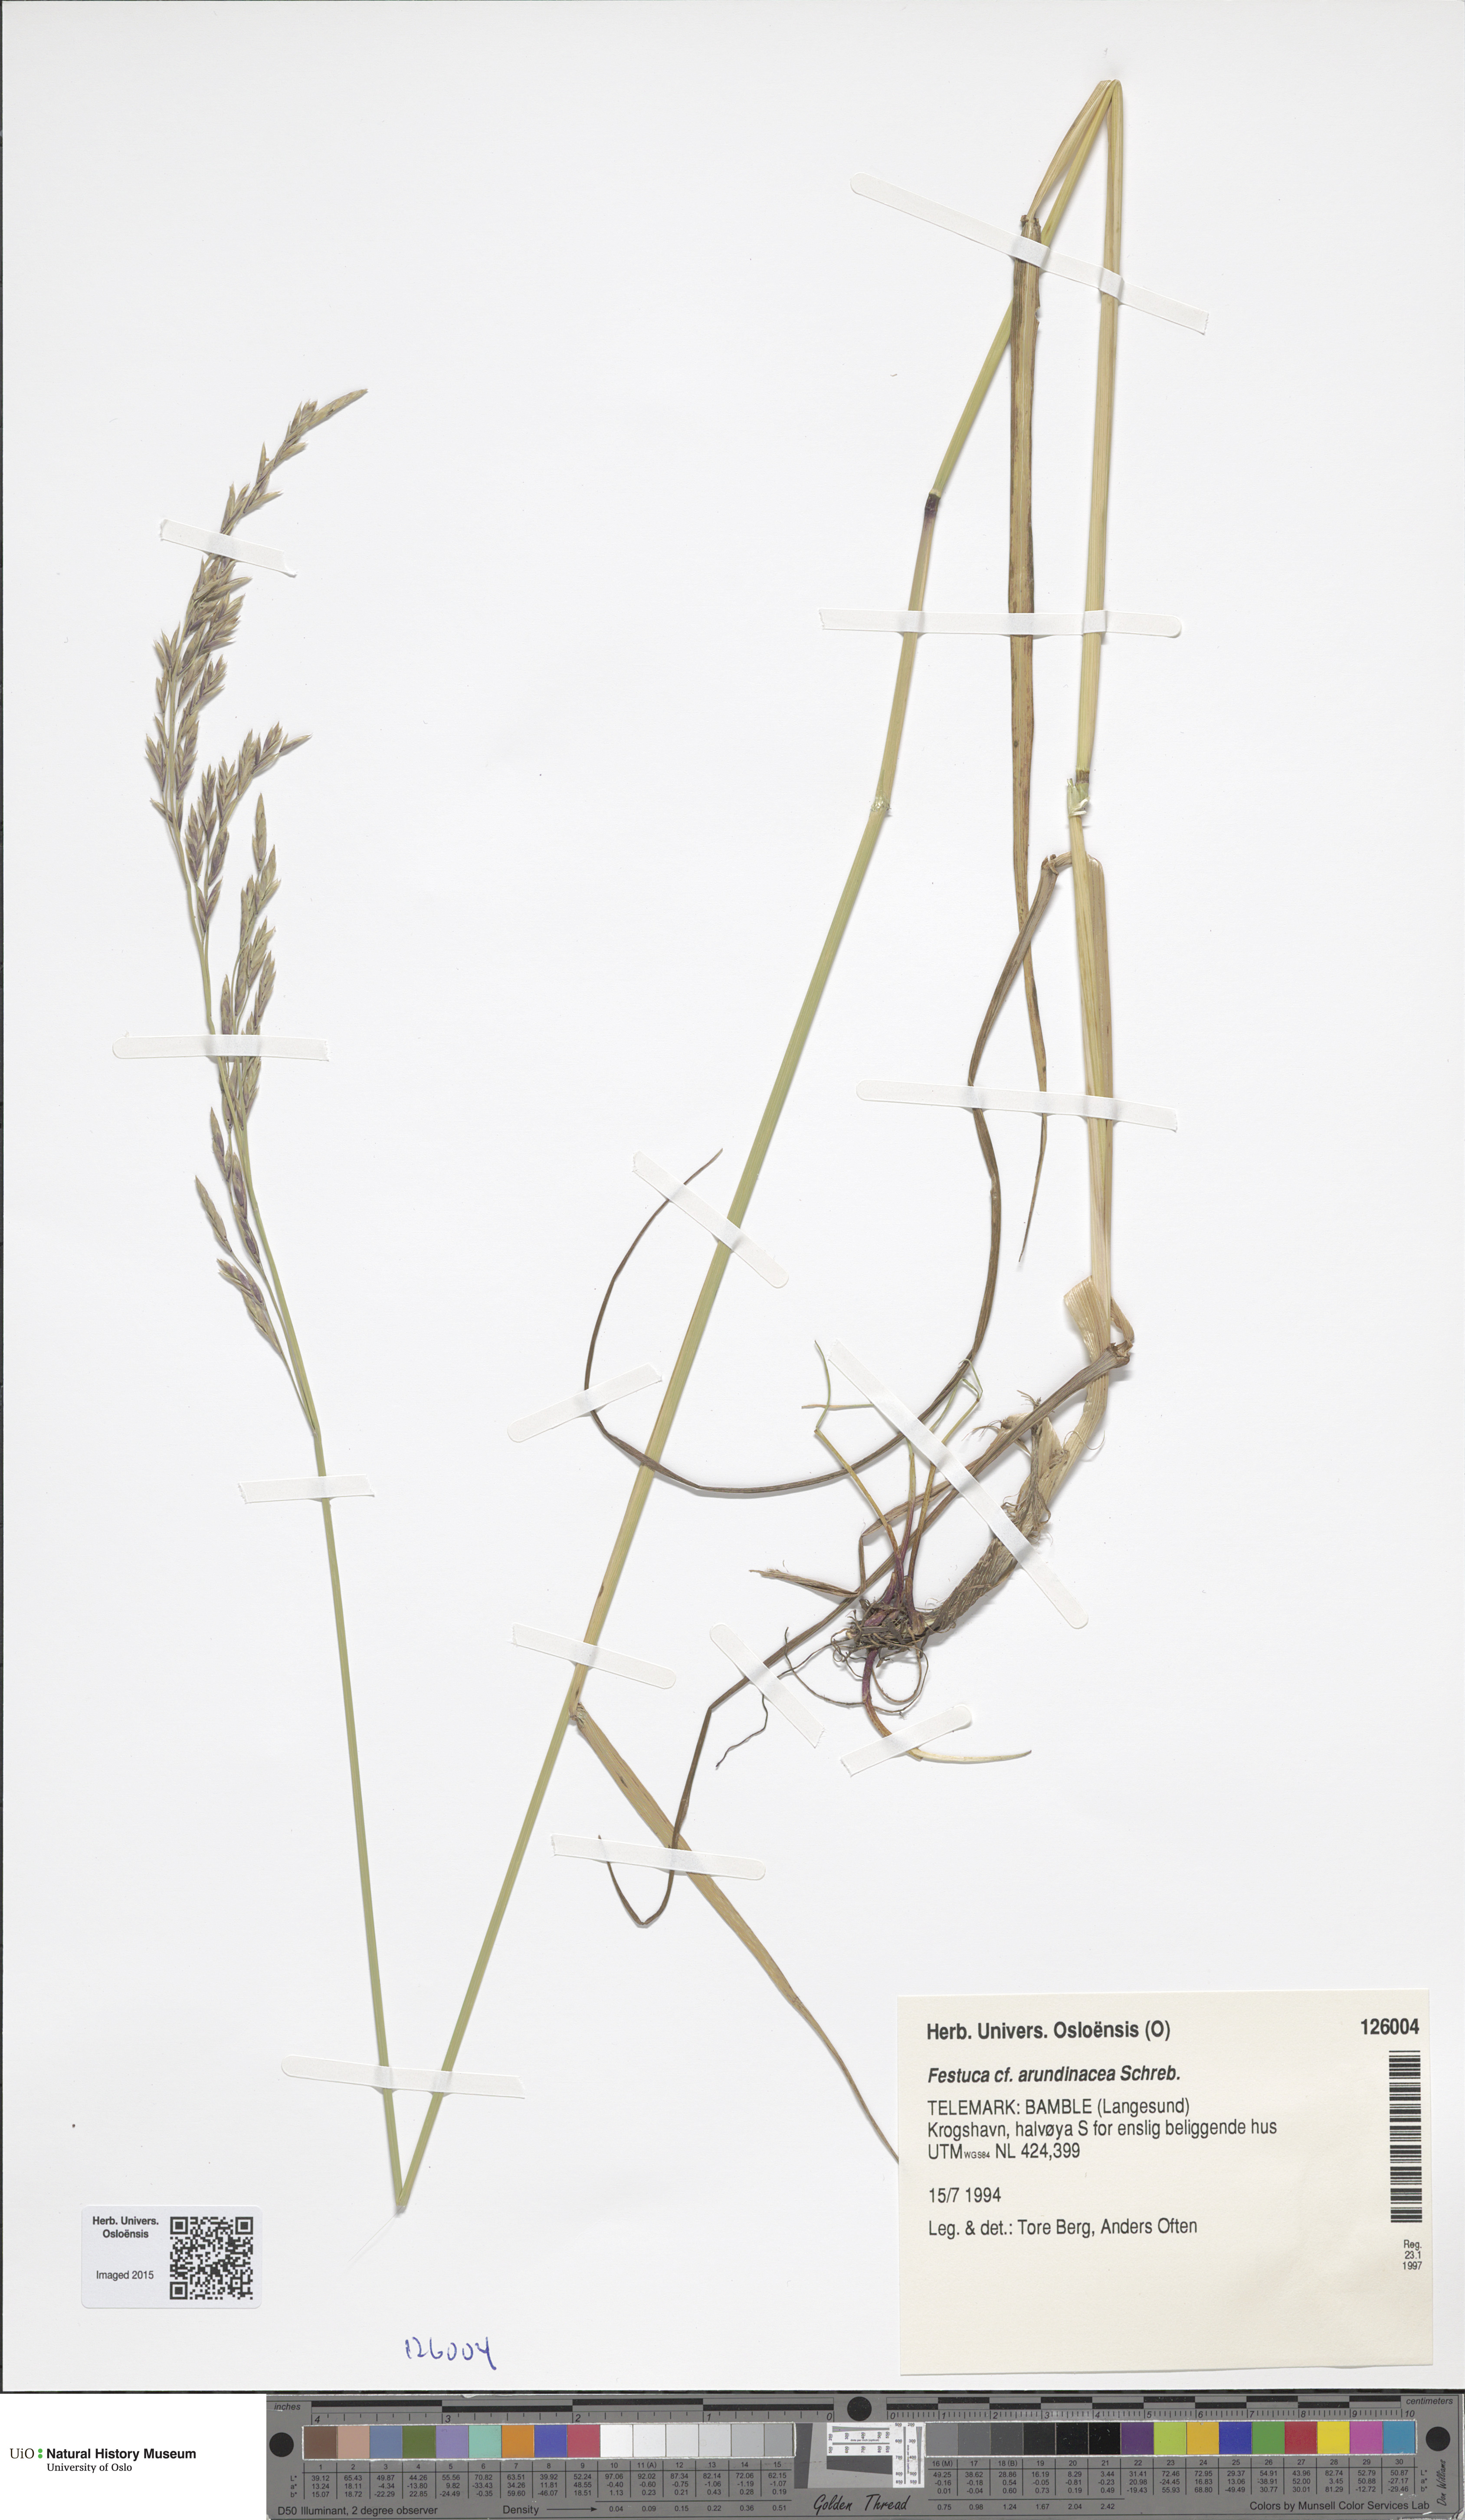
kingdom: Plantae
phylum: Tracheophyta
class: Liliopsida
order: Poales
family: Poaceae
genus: Lolium
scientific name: Lolium arundinaceum
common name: Reed fescue
